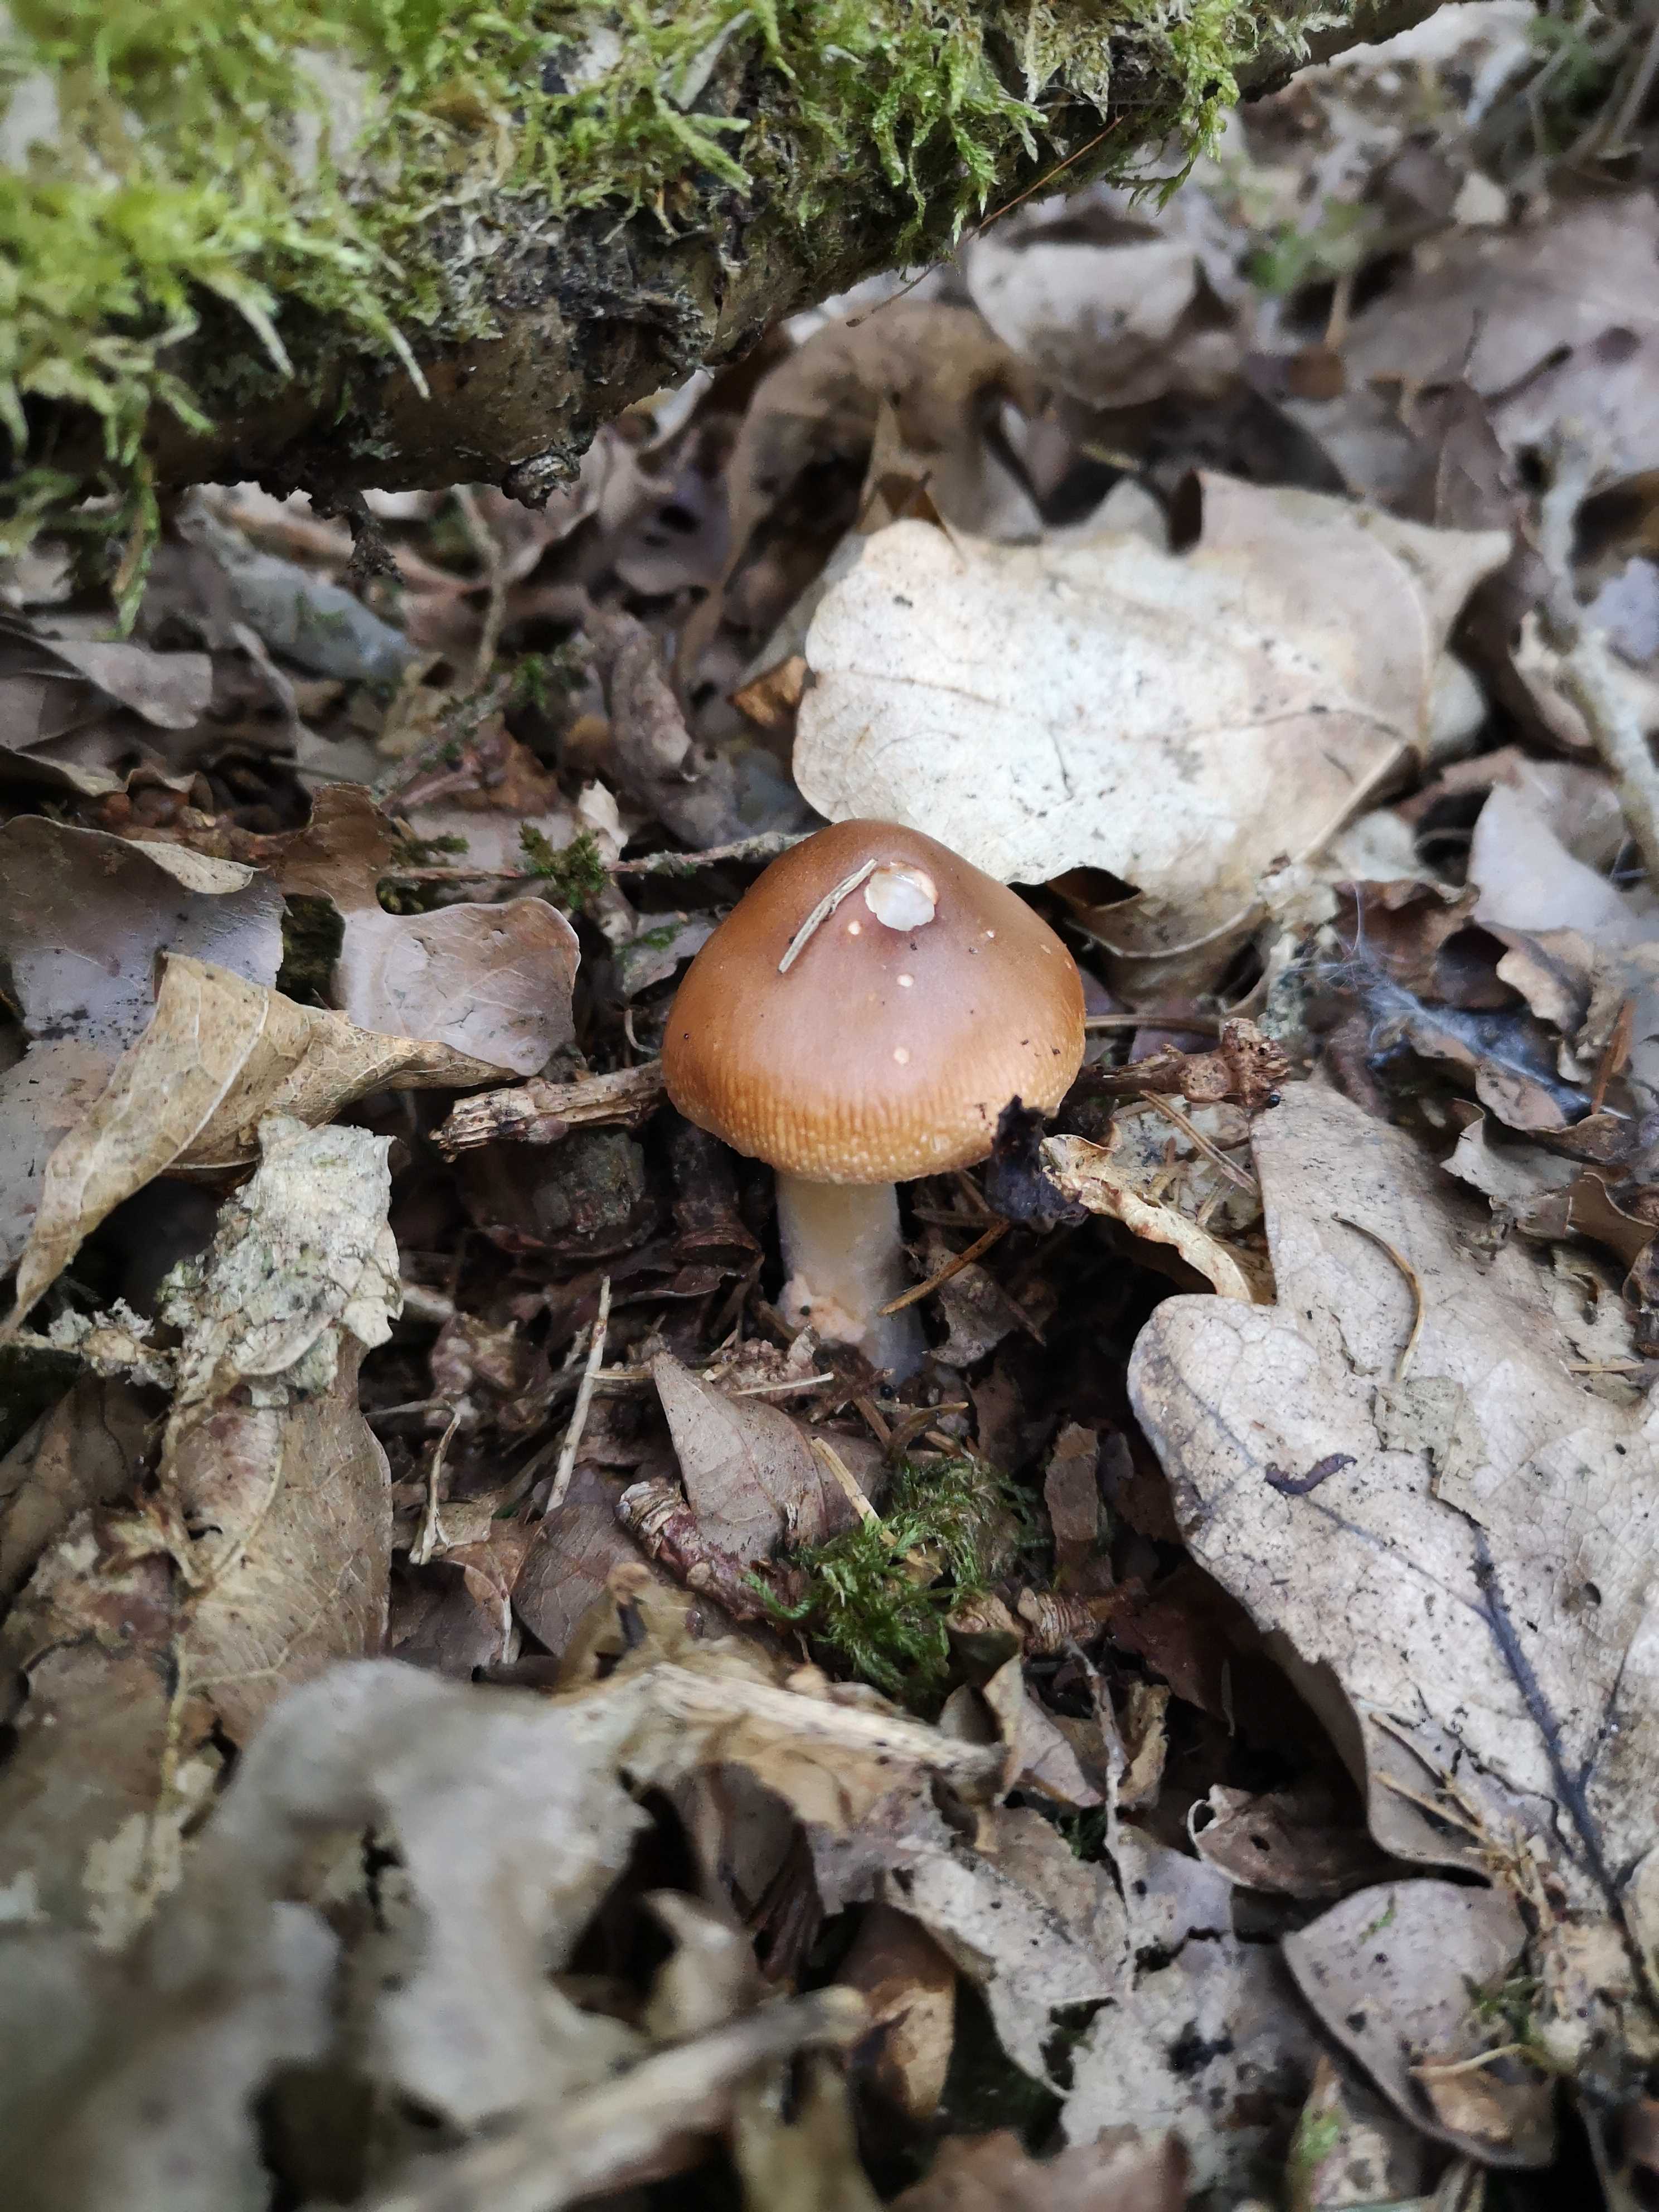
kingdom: Fungi
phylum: Basidiomycota
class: Agaricomycetes
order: Agaricales
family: Amanitaceae
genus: Amanita
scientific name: Amanita fulva
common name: brun kam-fluesvamp
